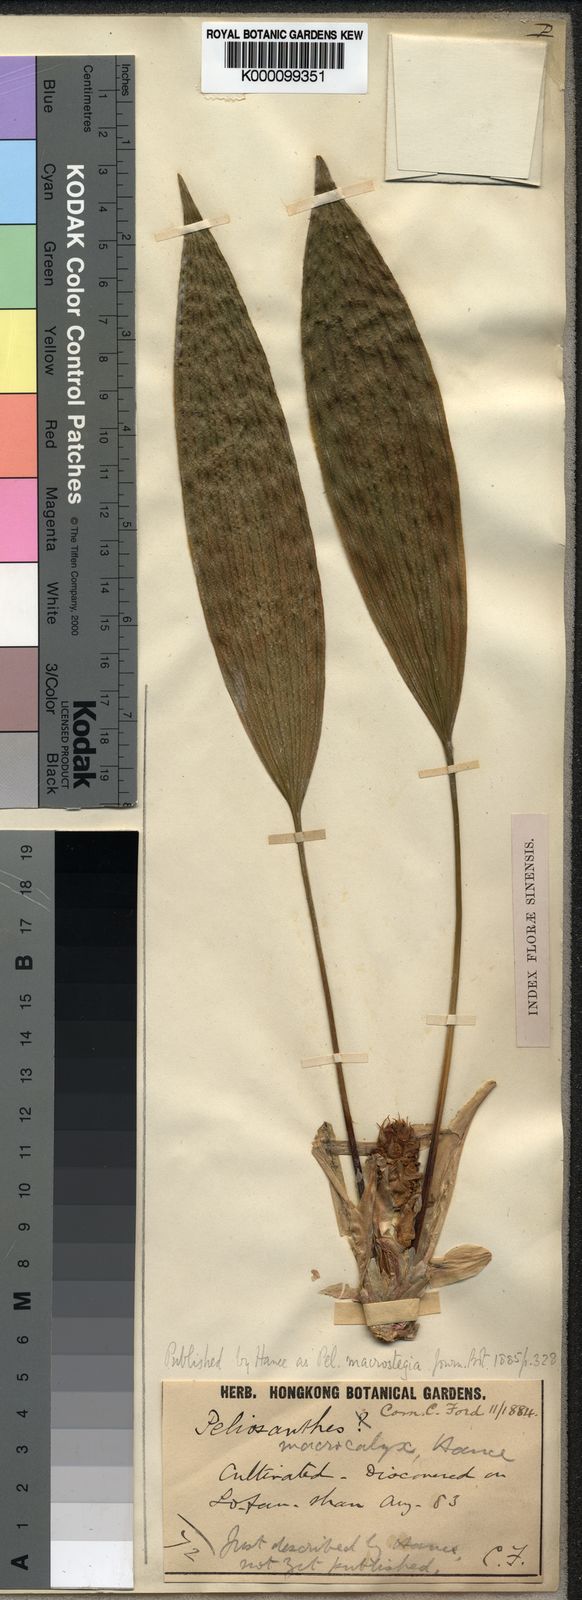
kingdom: Plantae
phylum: Tracheophyta
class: Liliopsida
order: Asparagales
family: Asparagaceae
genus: Peliosanthes
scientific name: Peliosanthes macrostegia
